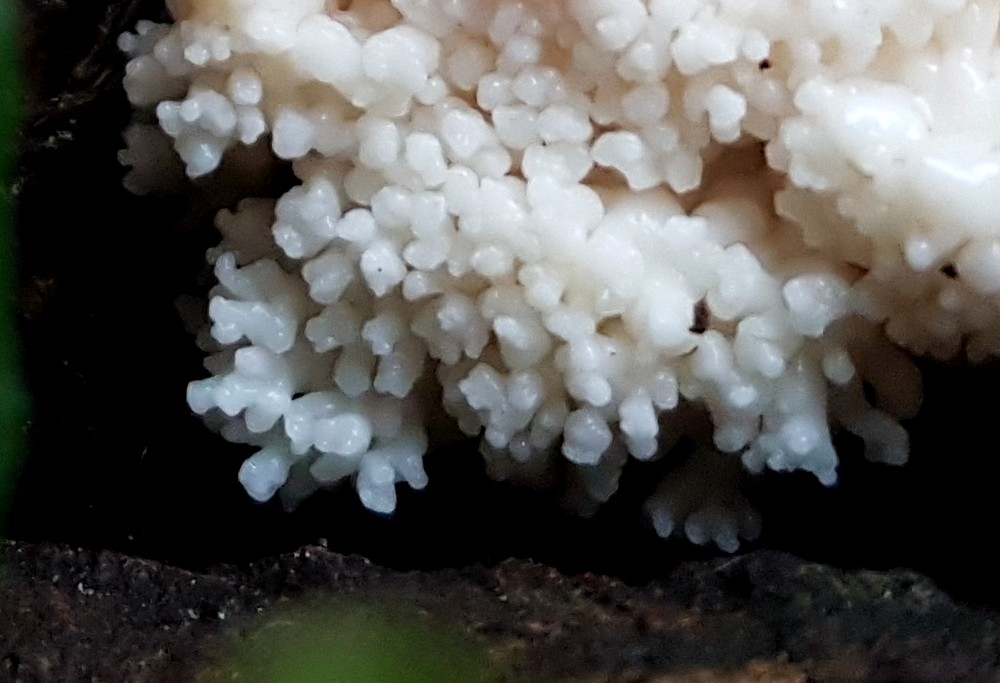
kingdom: Protozoa
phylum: Mycetozoa
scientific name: Mycetozoa
